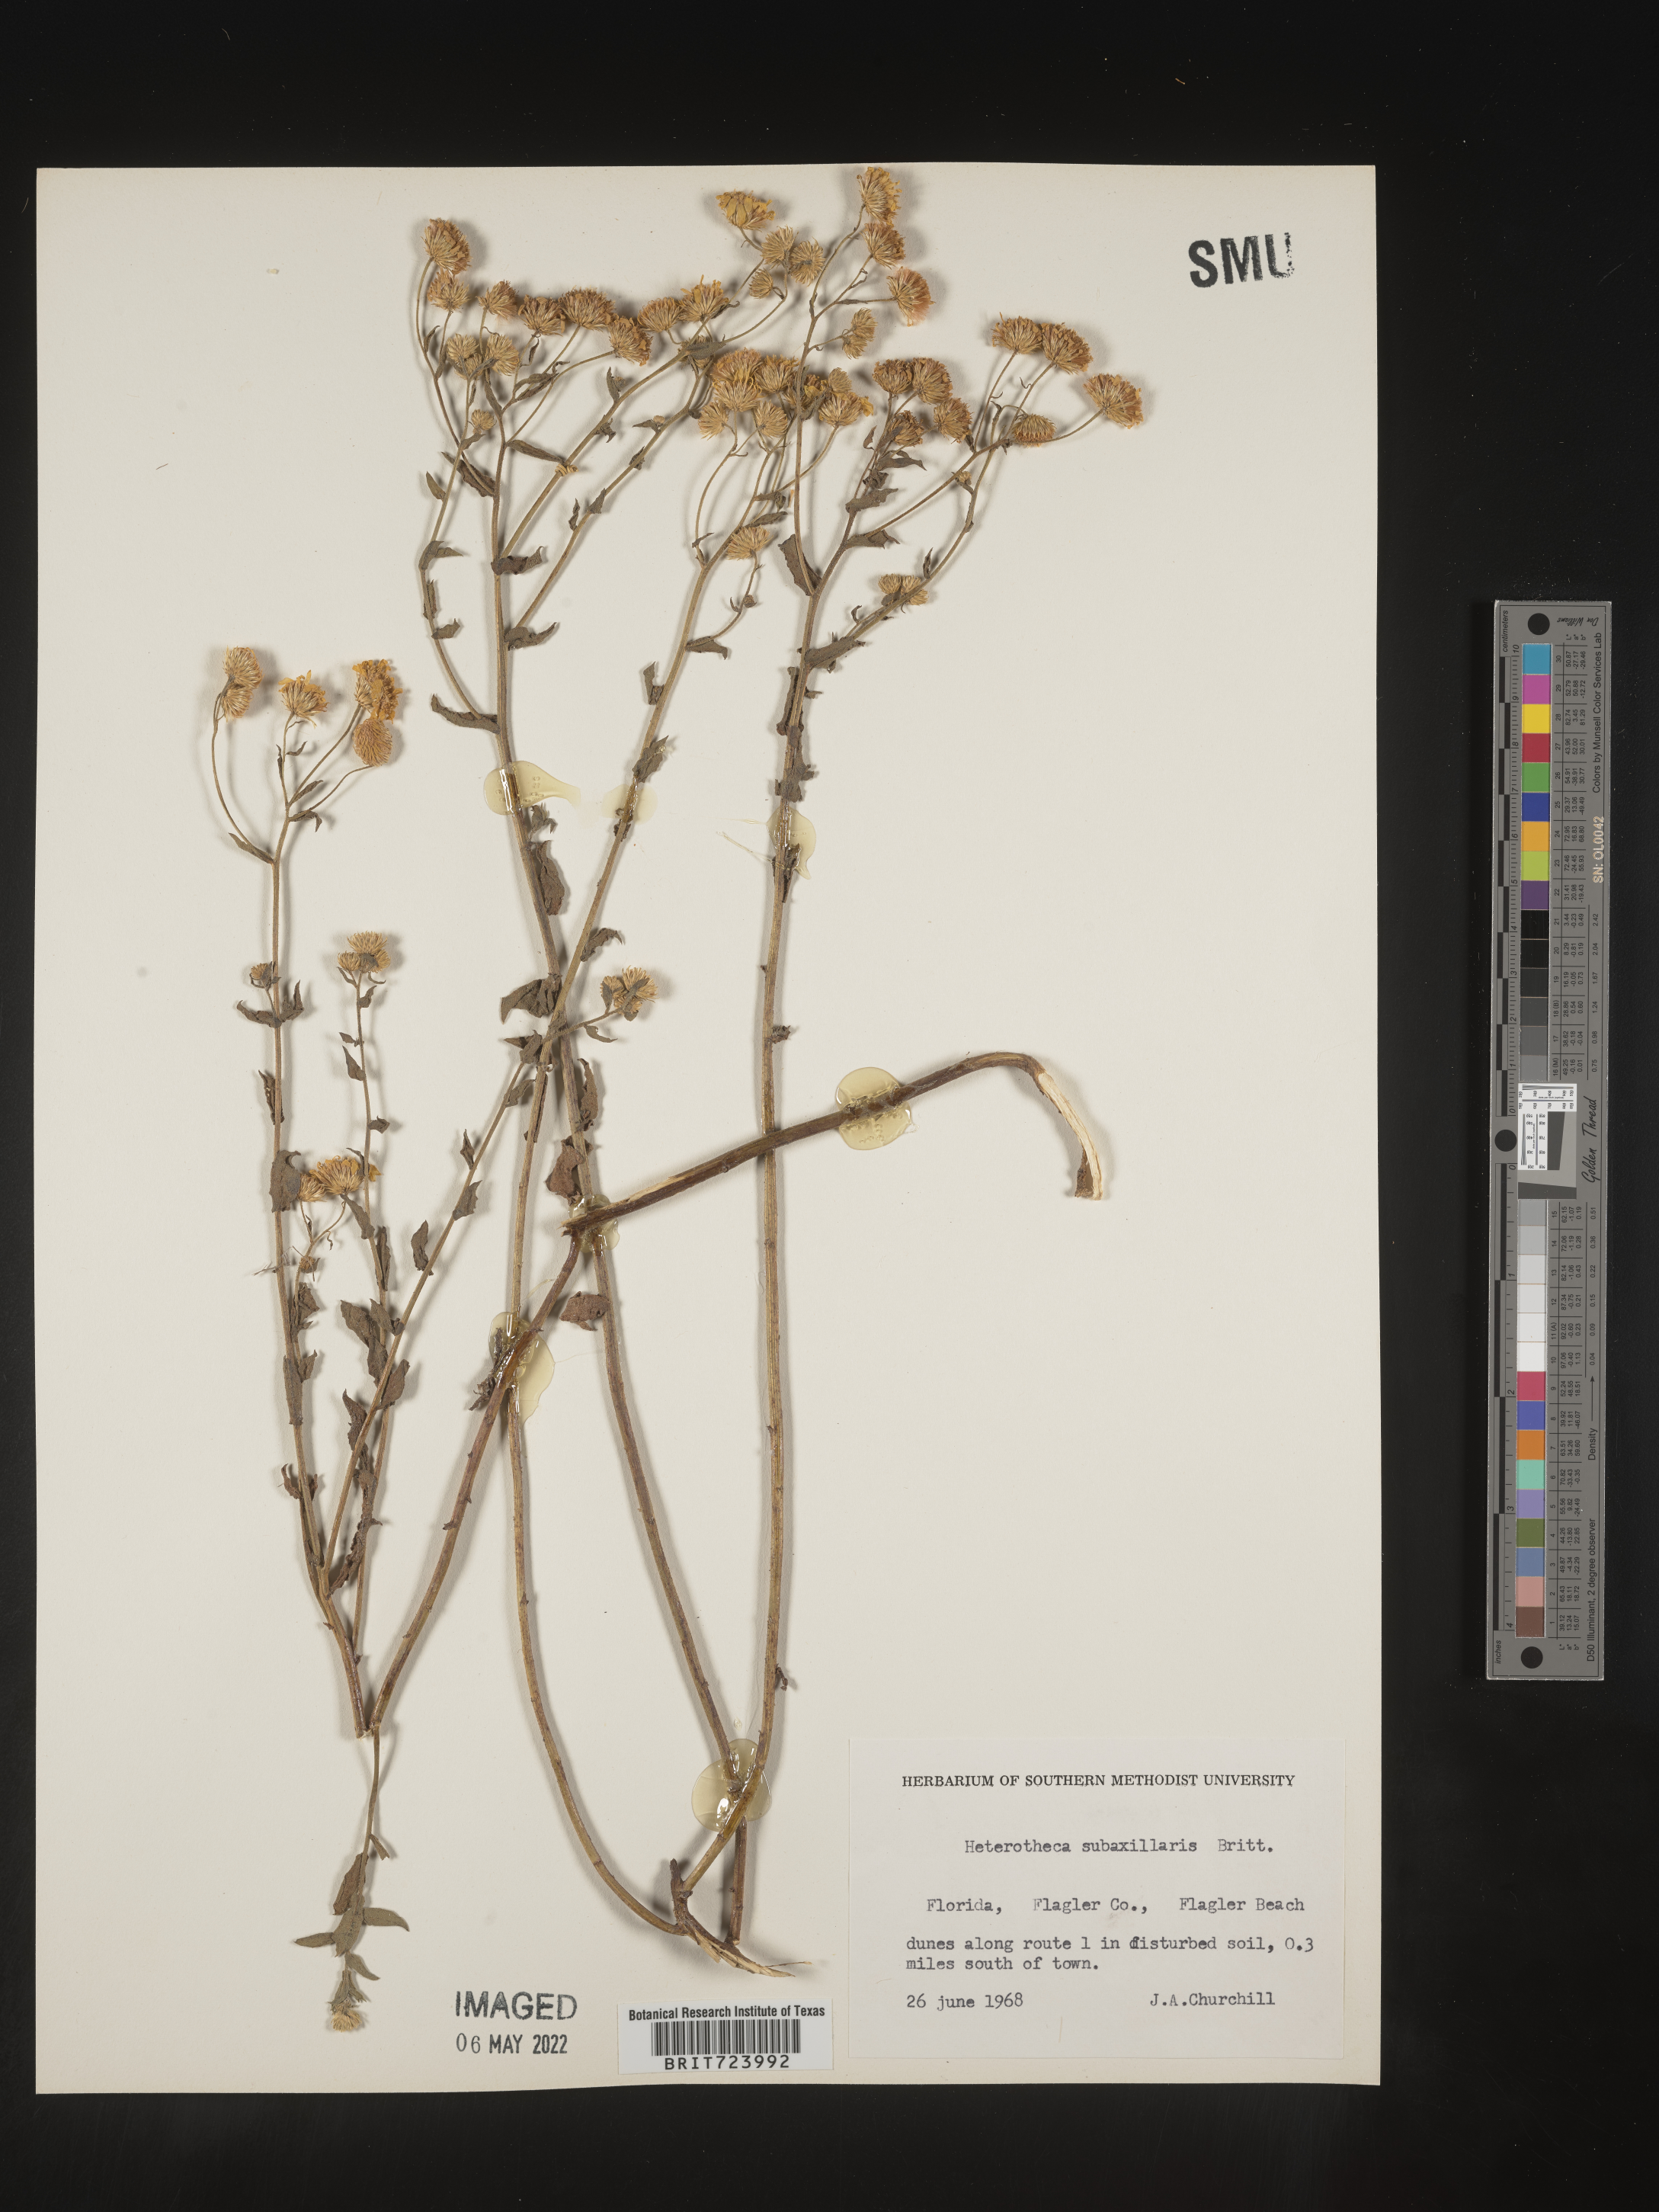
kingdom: Plantae
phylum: Tracheophyta
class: Magnoliopsida
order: Asterales
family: Asteraceae
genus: Heterotheca
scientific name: Heterotheca subaxillaris
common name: Camphorweed
